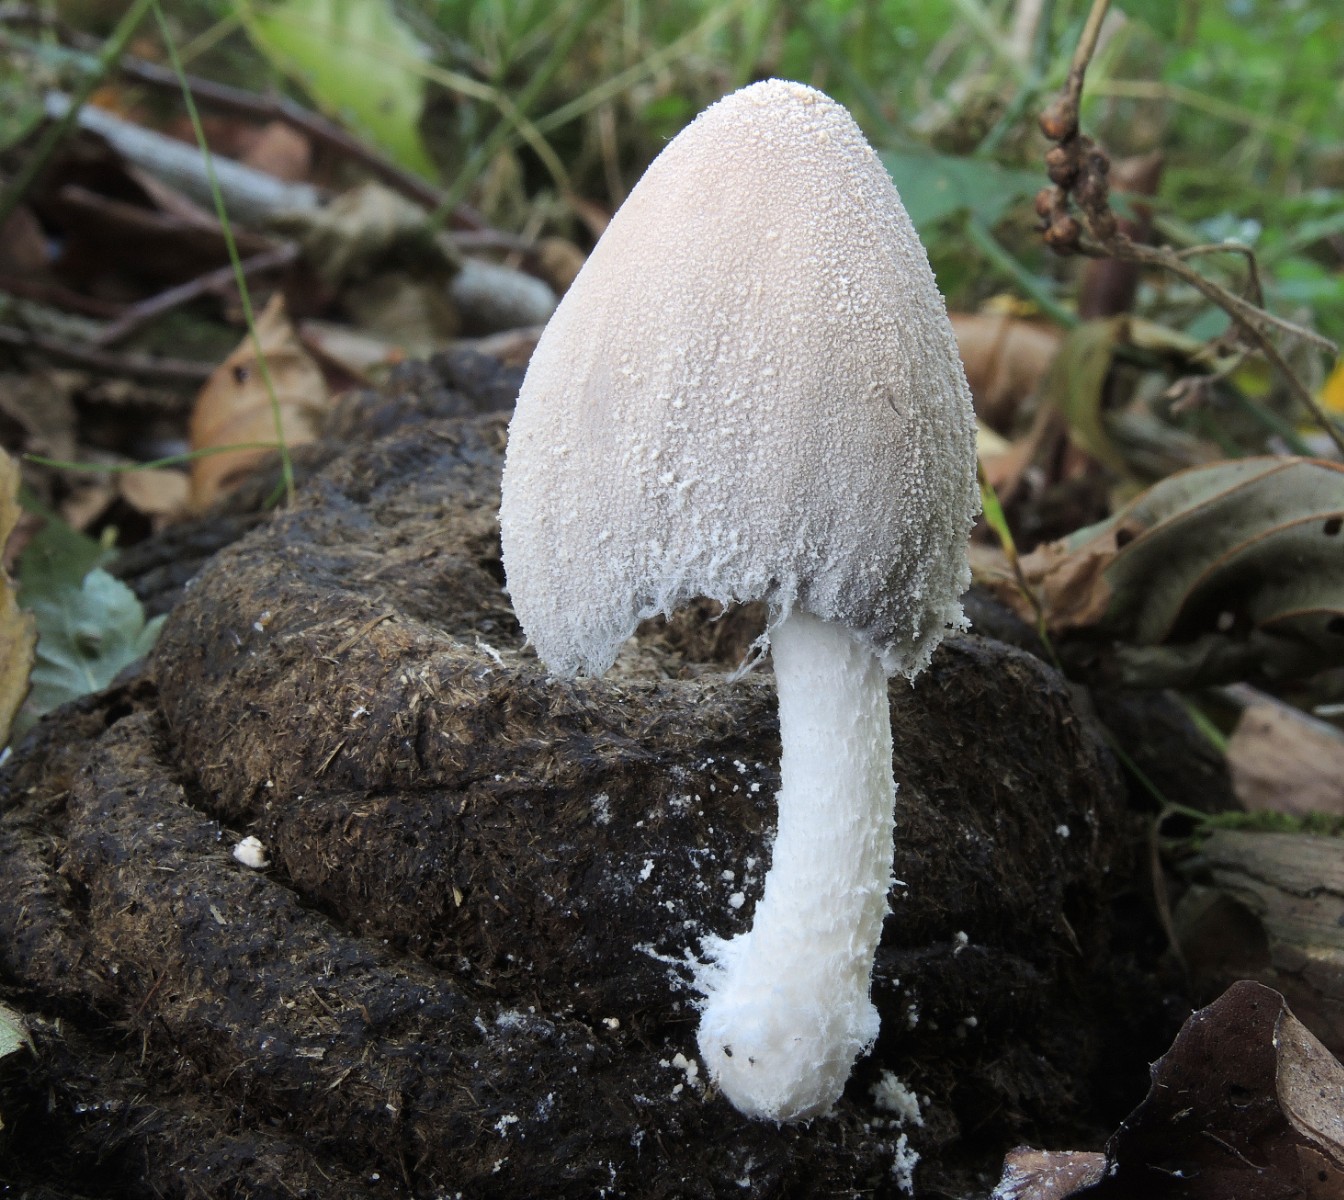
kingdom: Fungi
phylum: Basidiomycota
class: Agaricomycetes
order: Agaricales
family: Psathyrellaceae
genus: Coprinopsis
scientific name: Coprinopsis nivea
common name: snehvid blækhat
